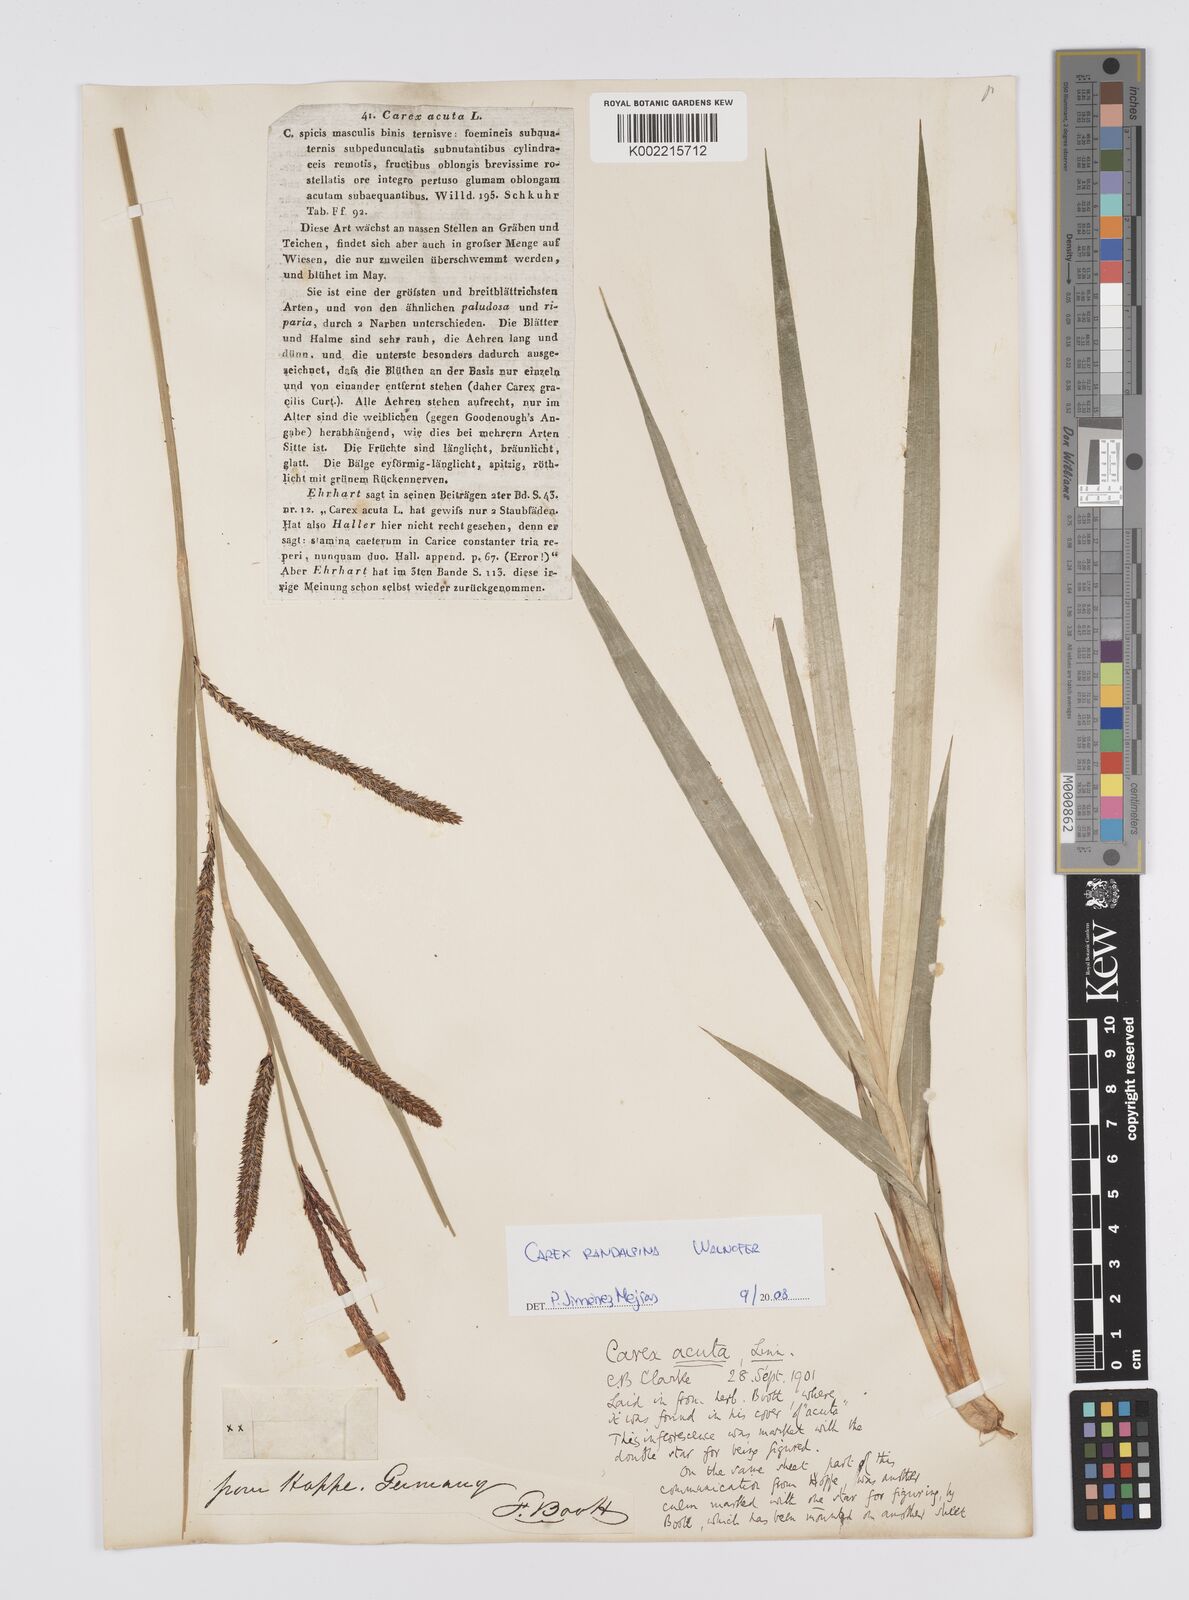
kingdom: Plantae
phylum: Tracheophyta
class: Liliopsida
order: Poales
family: Cyperaceae
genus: Carex
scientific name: Carex randalpina
